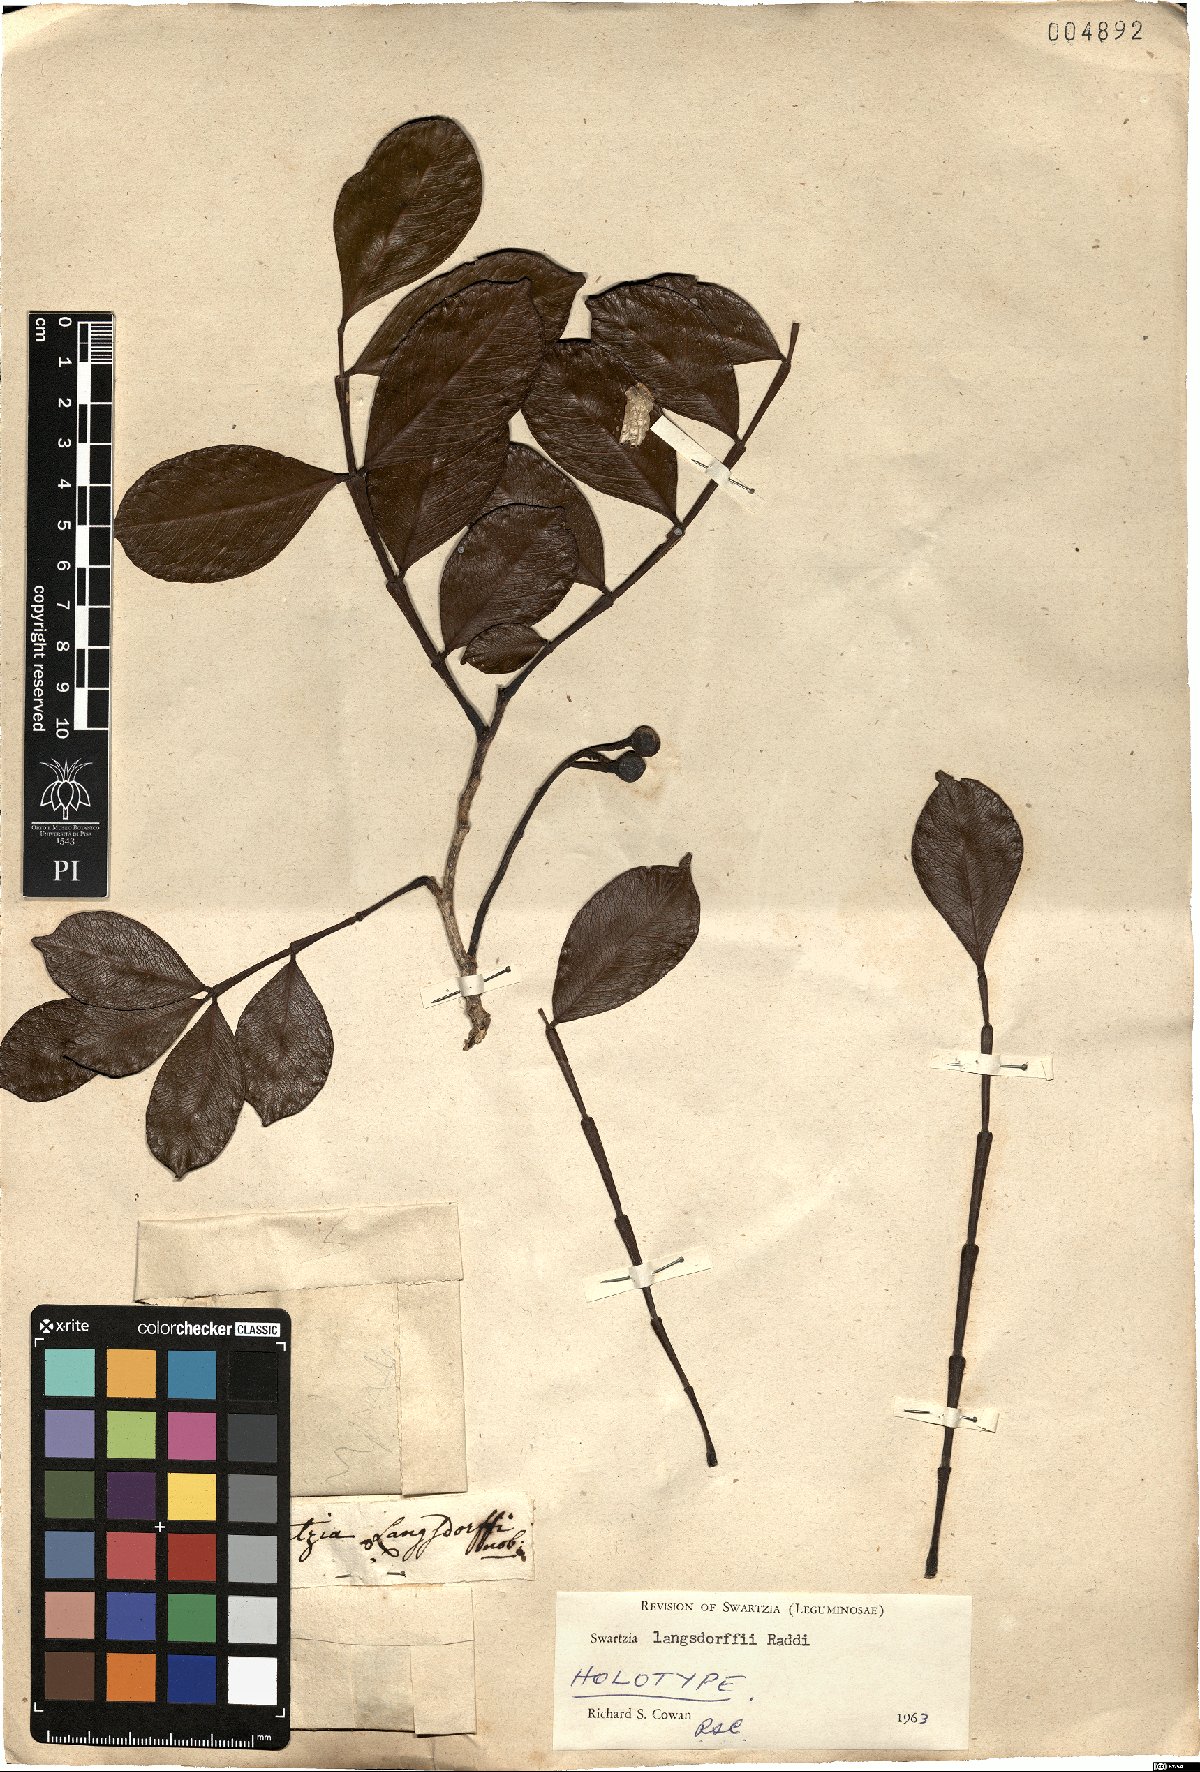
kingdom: Plantae
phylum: Tracheophyta
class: Magnoliopsida
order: Fabales
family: Fabaceae
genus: Swartzia
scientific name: Swartzia langsdorffii
